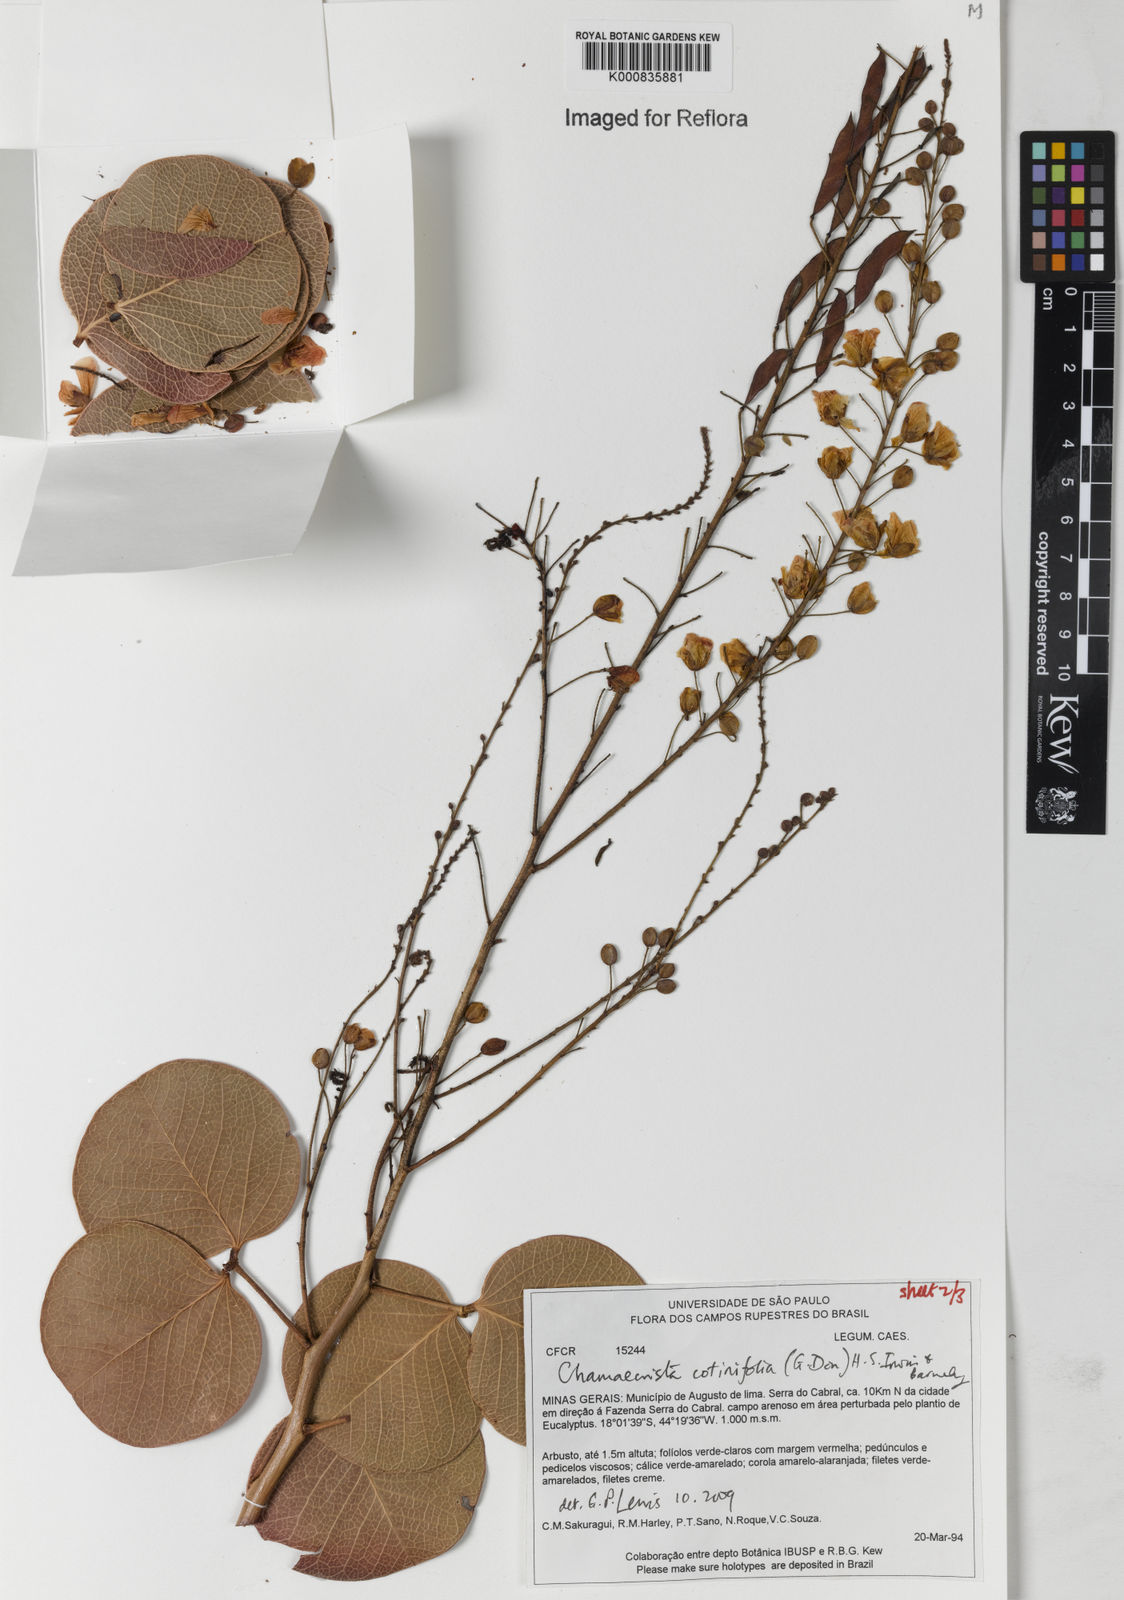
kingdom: Plantae
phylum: Tracheophyta
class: Magnoliopsida
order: Fabales
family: Fabaceae
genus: Chamaecrista
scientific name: Chamaecrista cotinifolia
